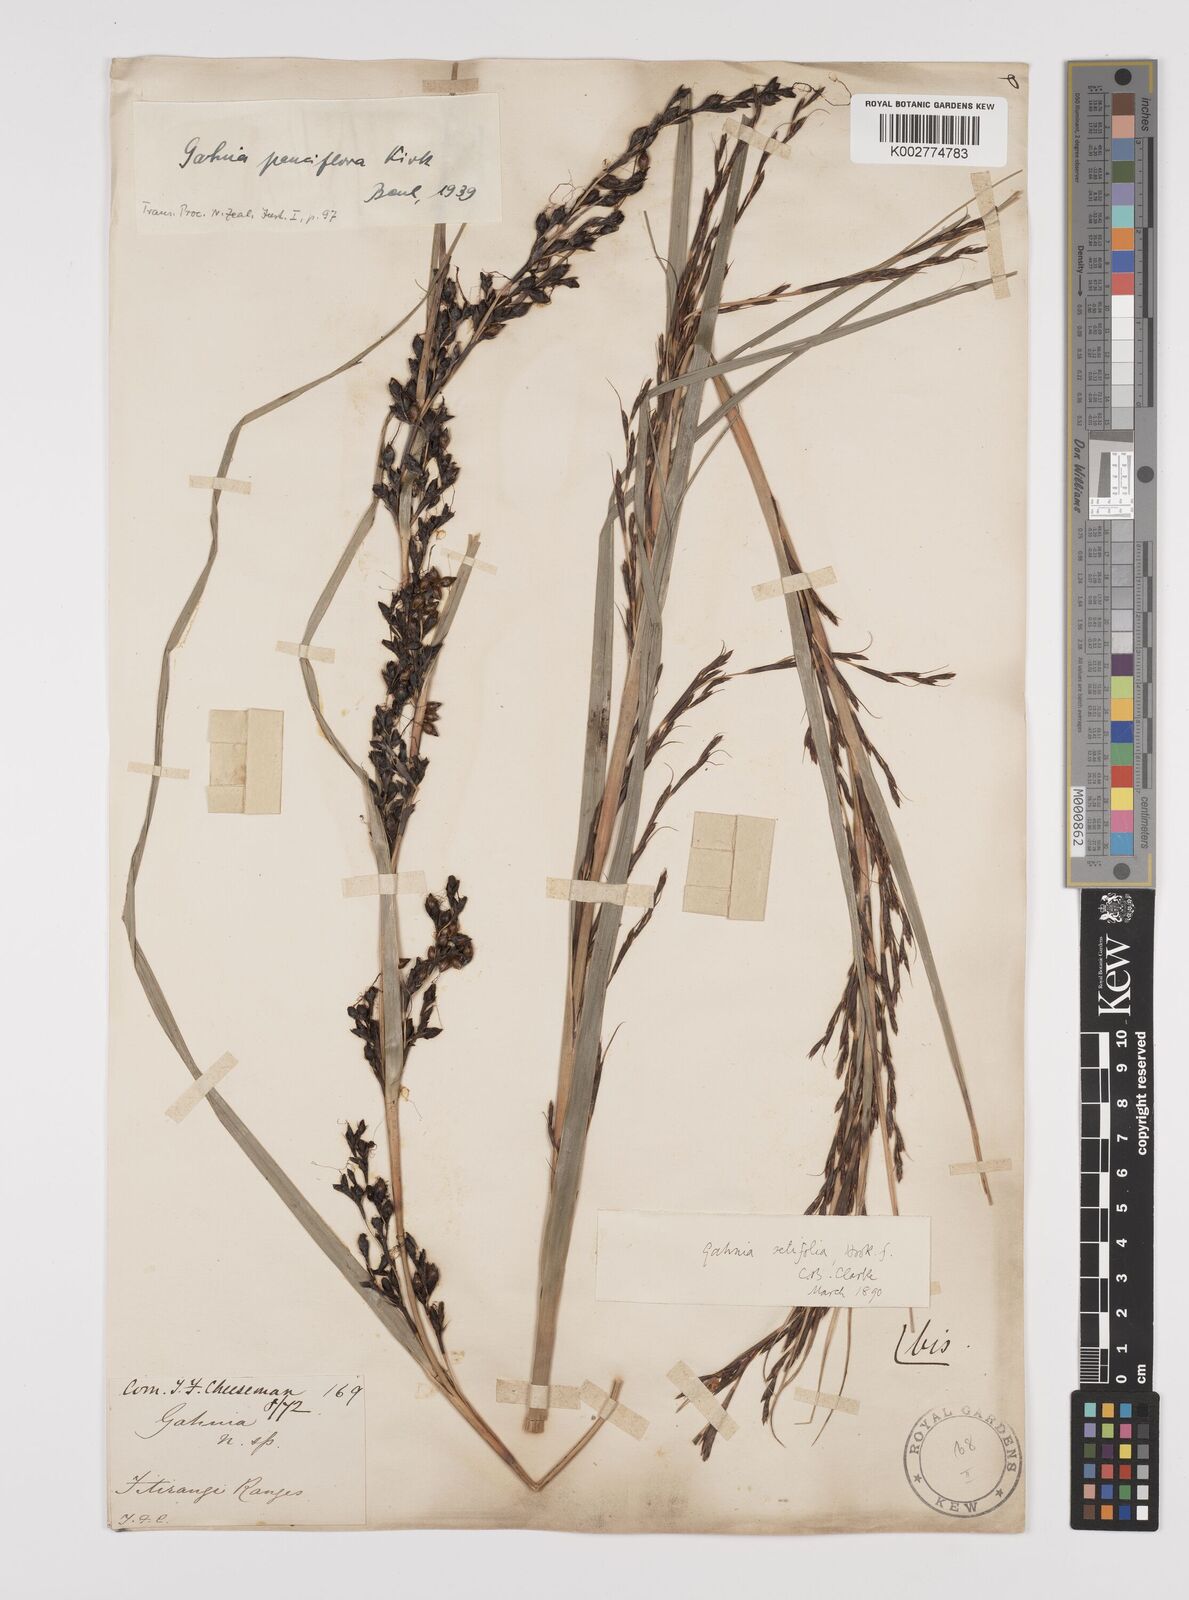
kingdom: Plantae
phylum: Tracheophyta
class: Liliopsida
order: Poales
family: Cyperaceae
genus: Gahnia
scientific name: Gahnia pauciflora
